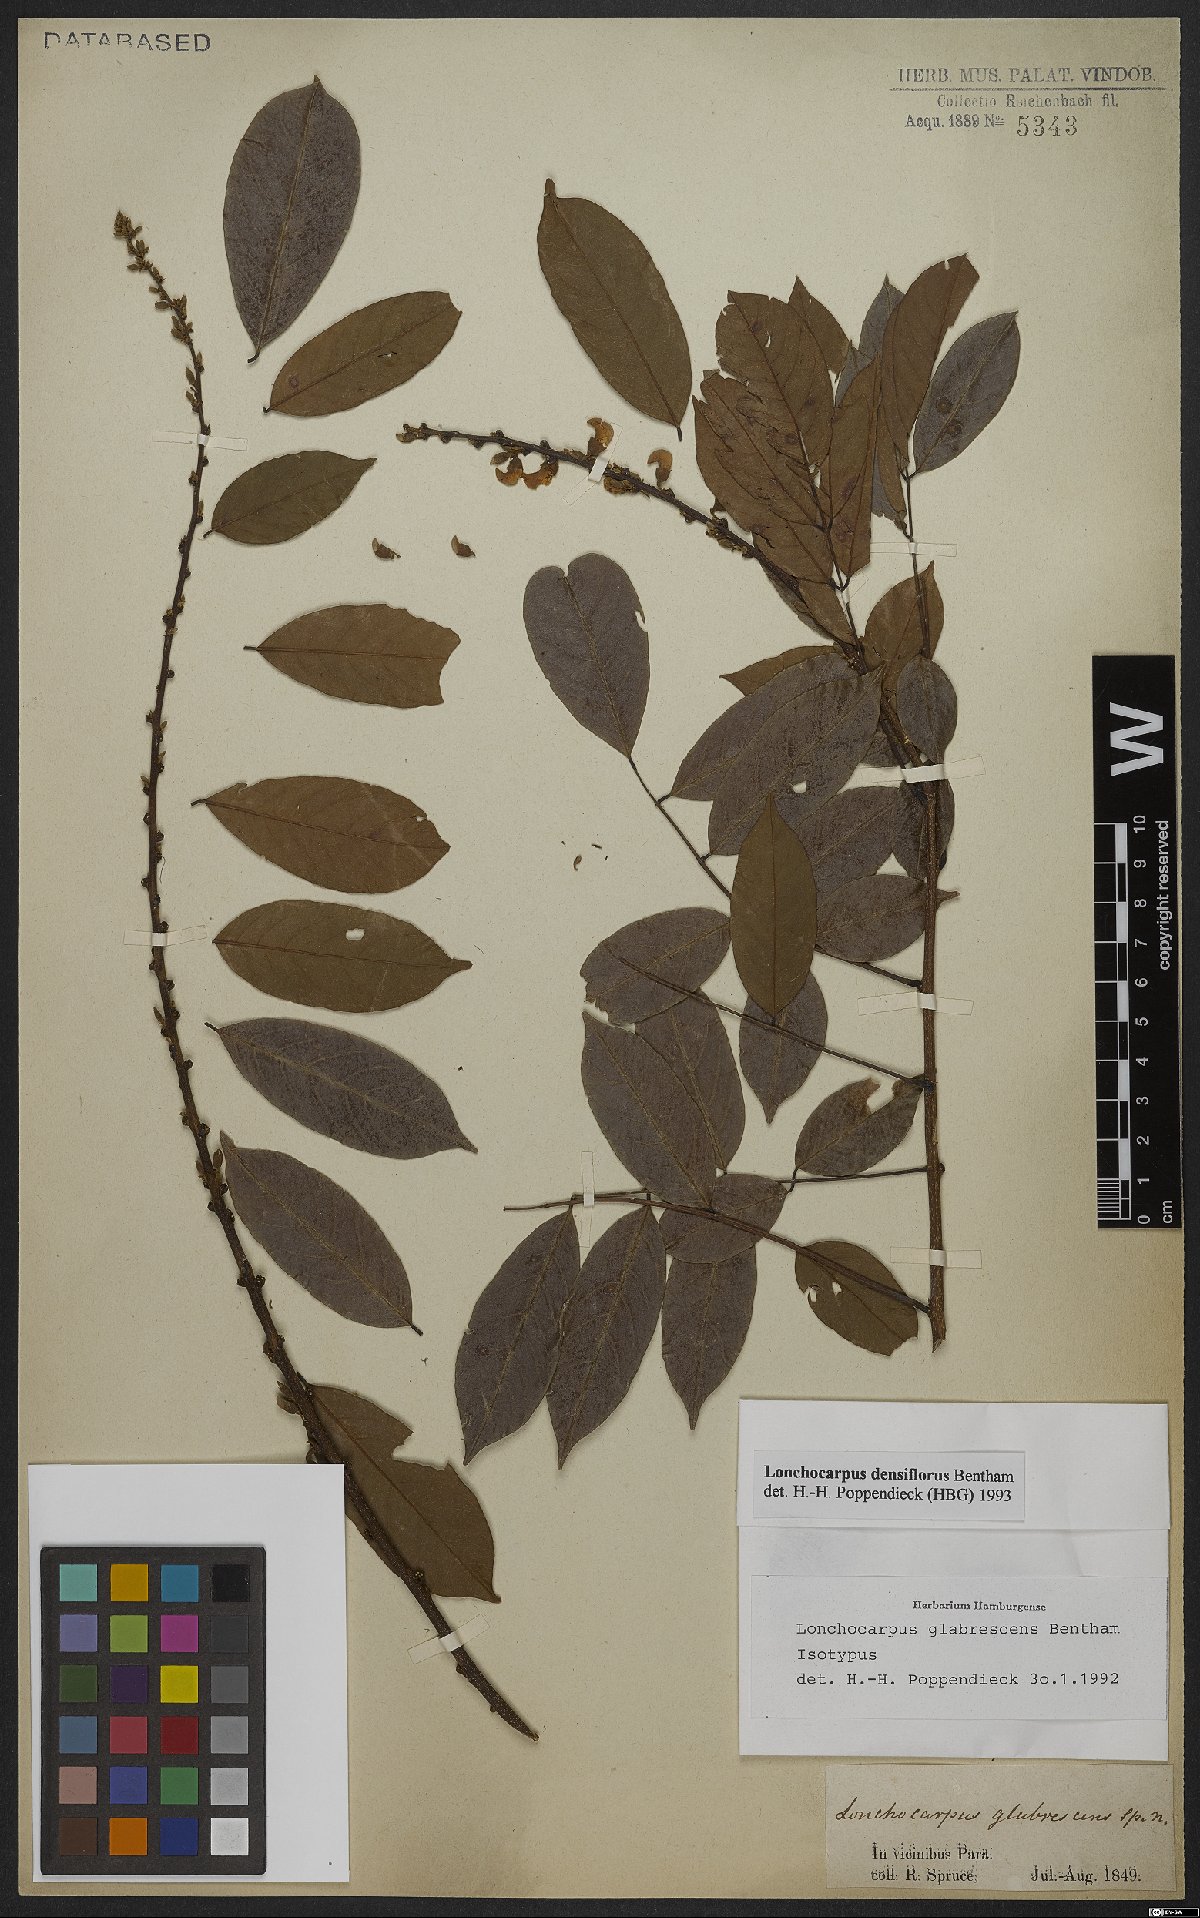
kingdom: Plantae
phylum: Tracheophyta
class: Magnoliopsida
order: Fabales
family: Fabaceae
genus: Deguelia
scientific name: Deguelia densiflora
